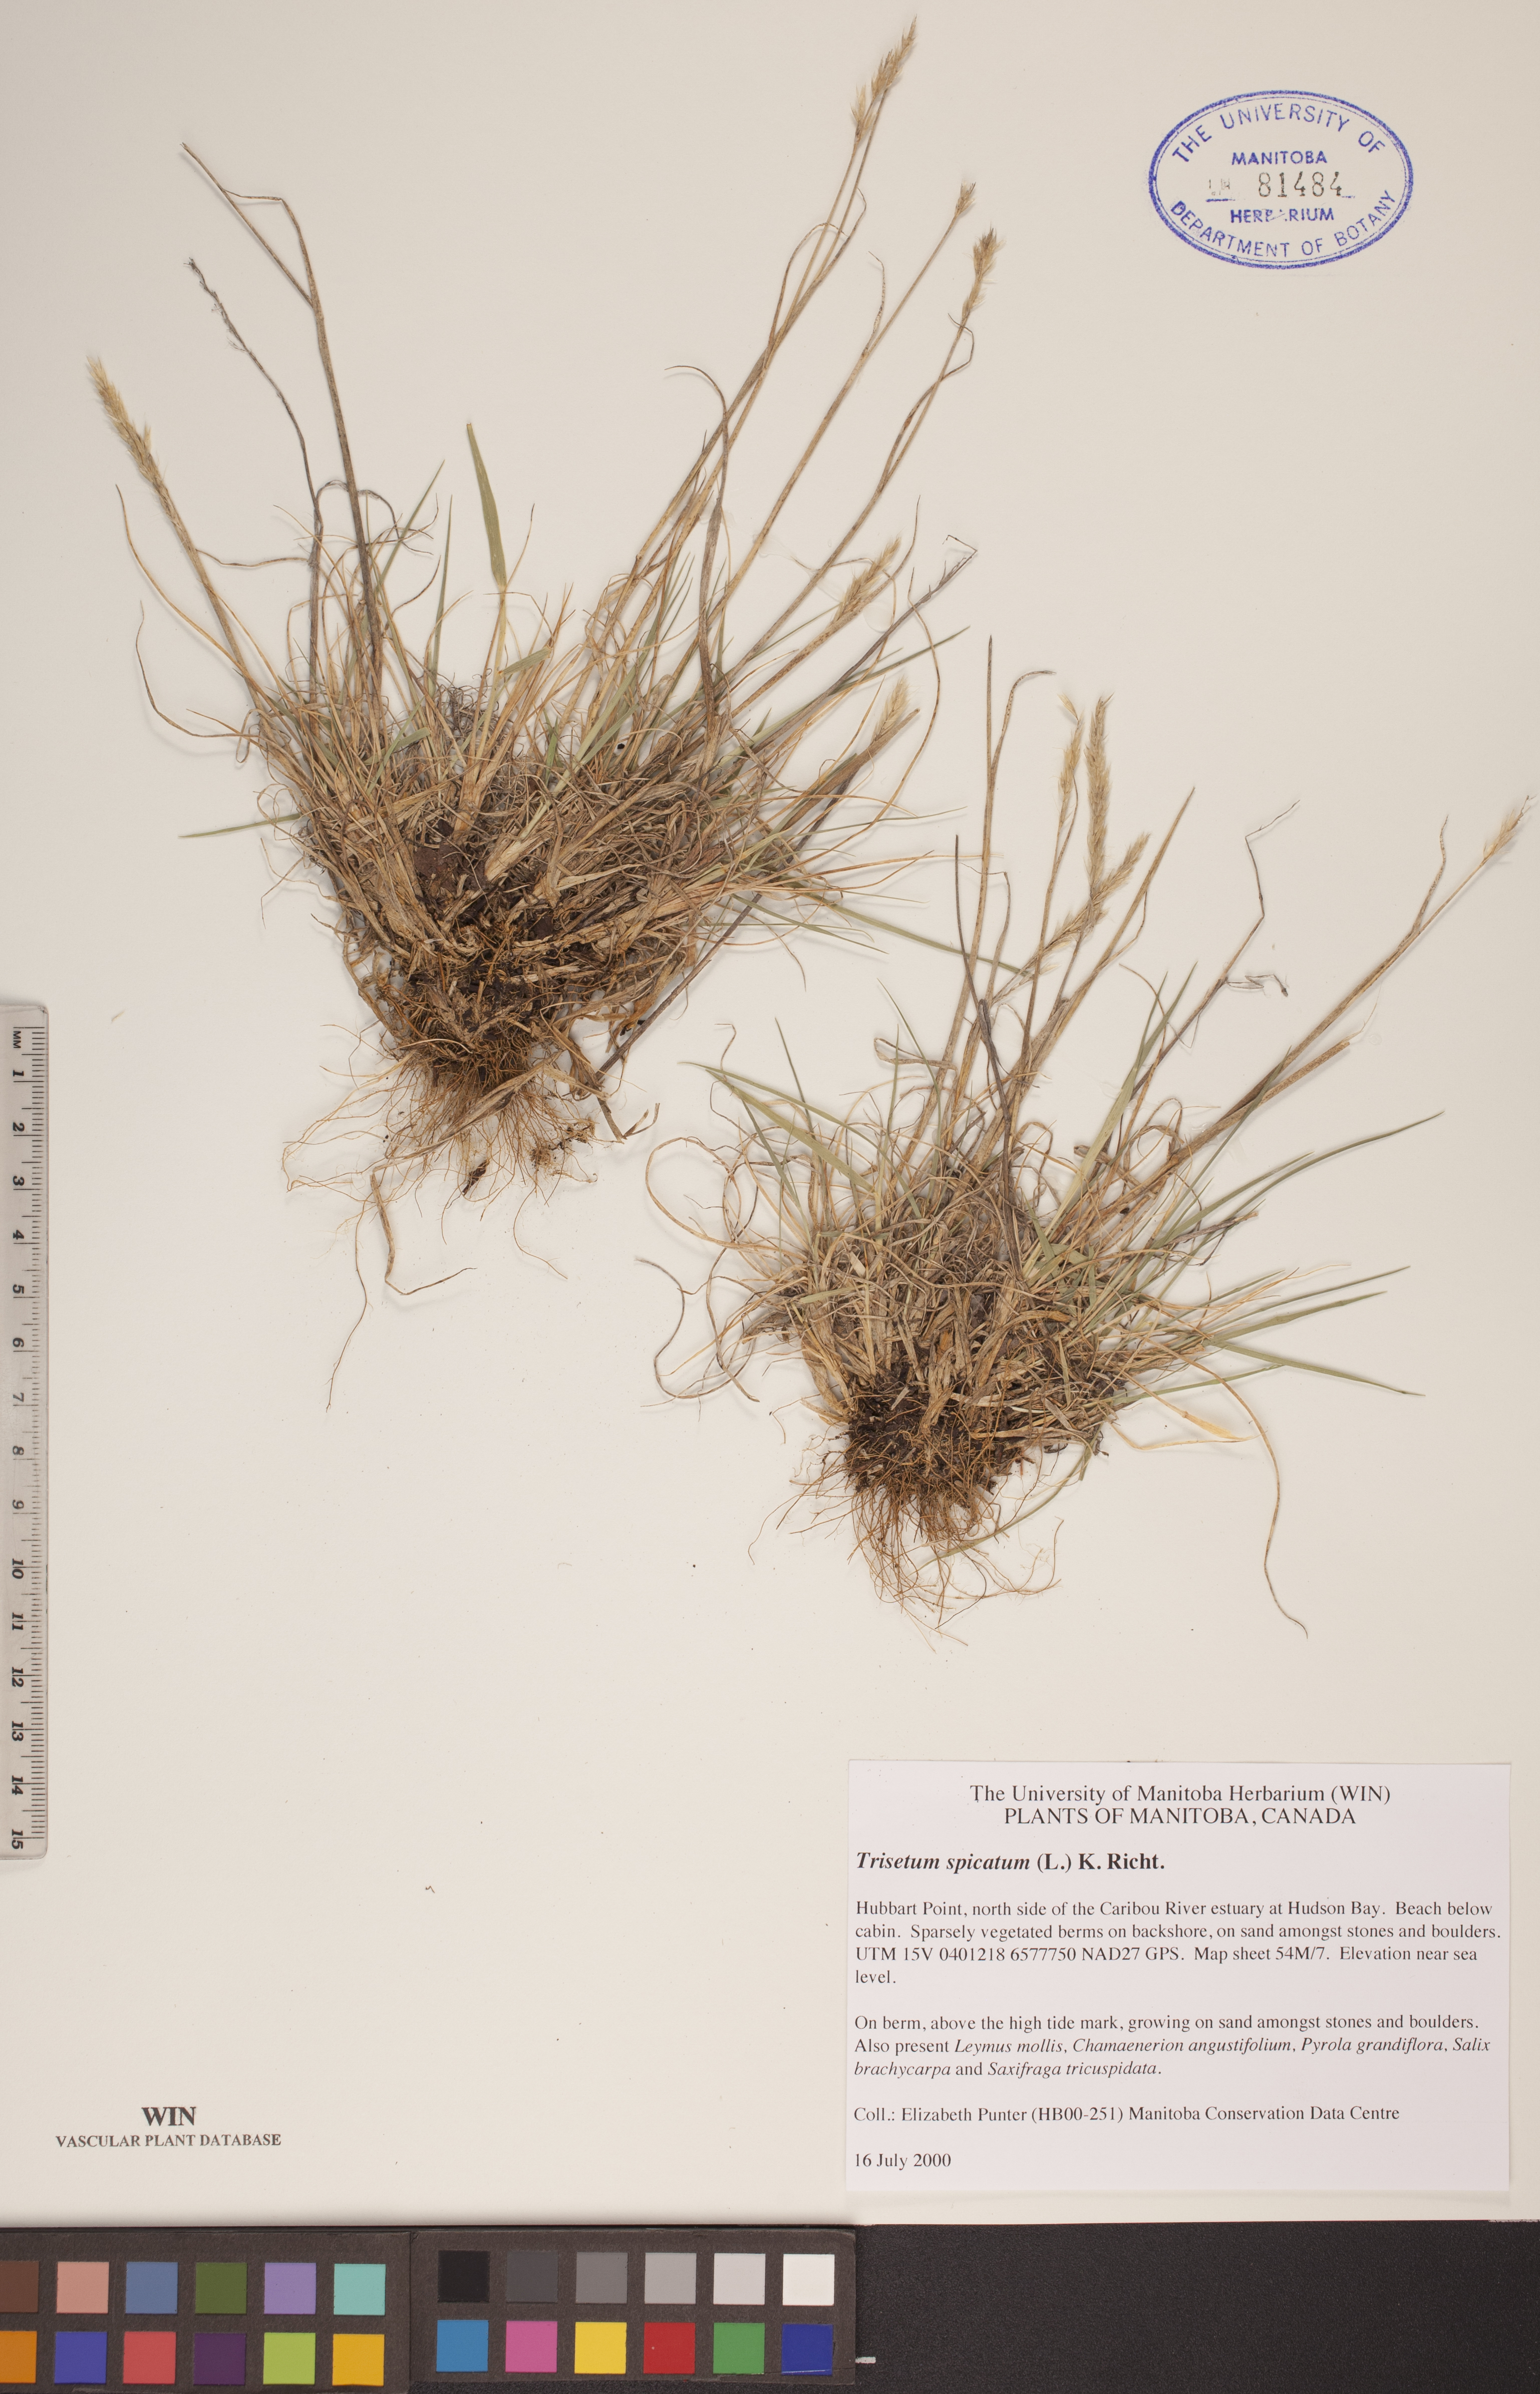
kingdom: Plantae
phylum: Tracheophyta
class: Liliopsida
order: Poales
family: Poaceae
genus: Koeleria
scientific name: Koeleria spicata
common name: Mountain trisetum
